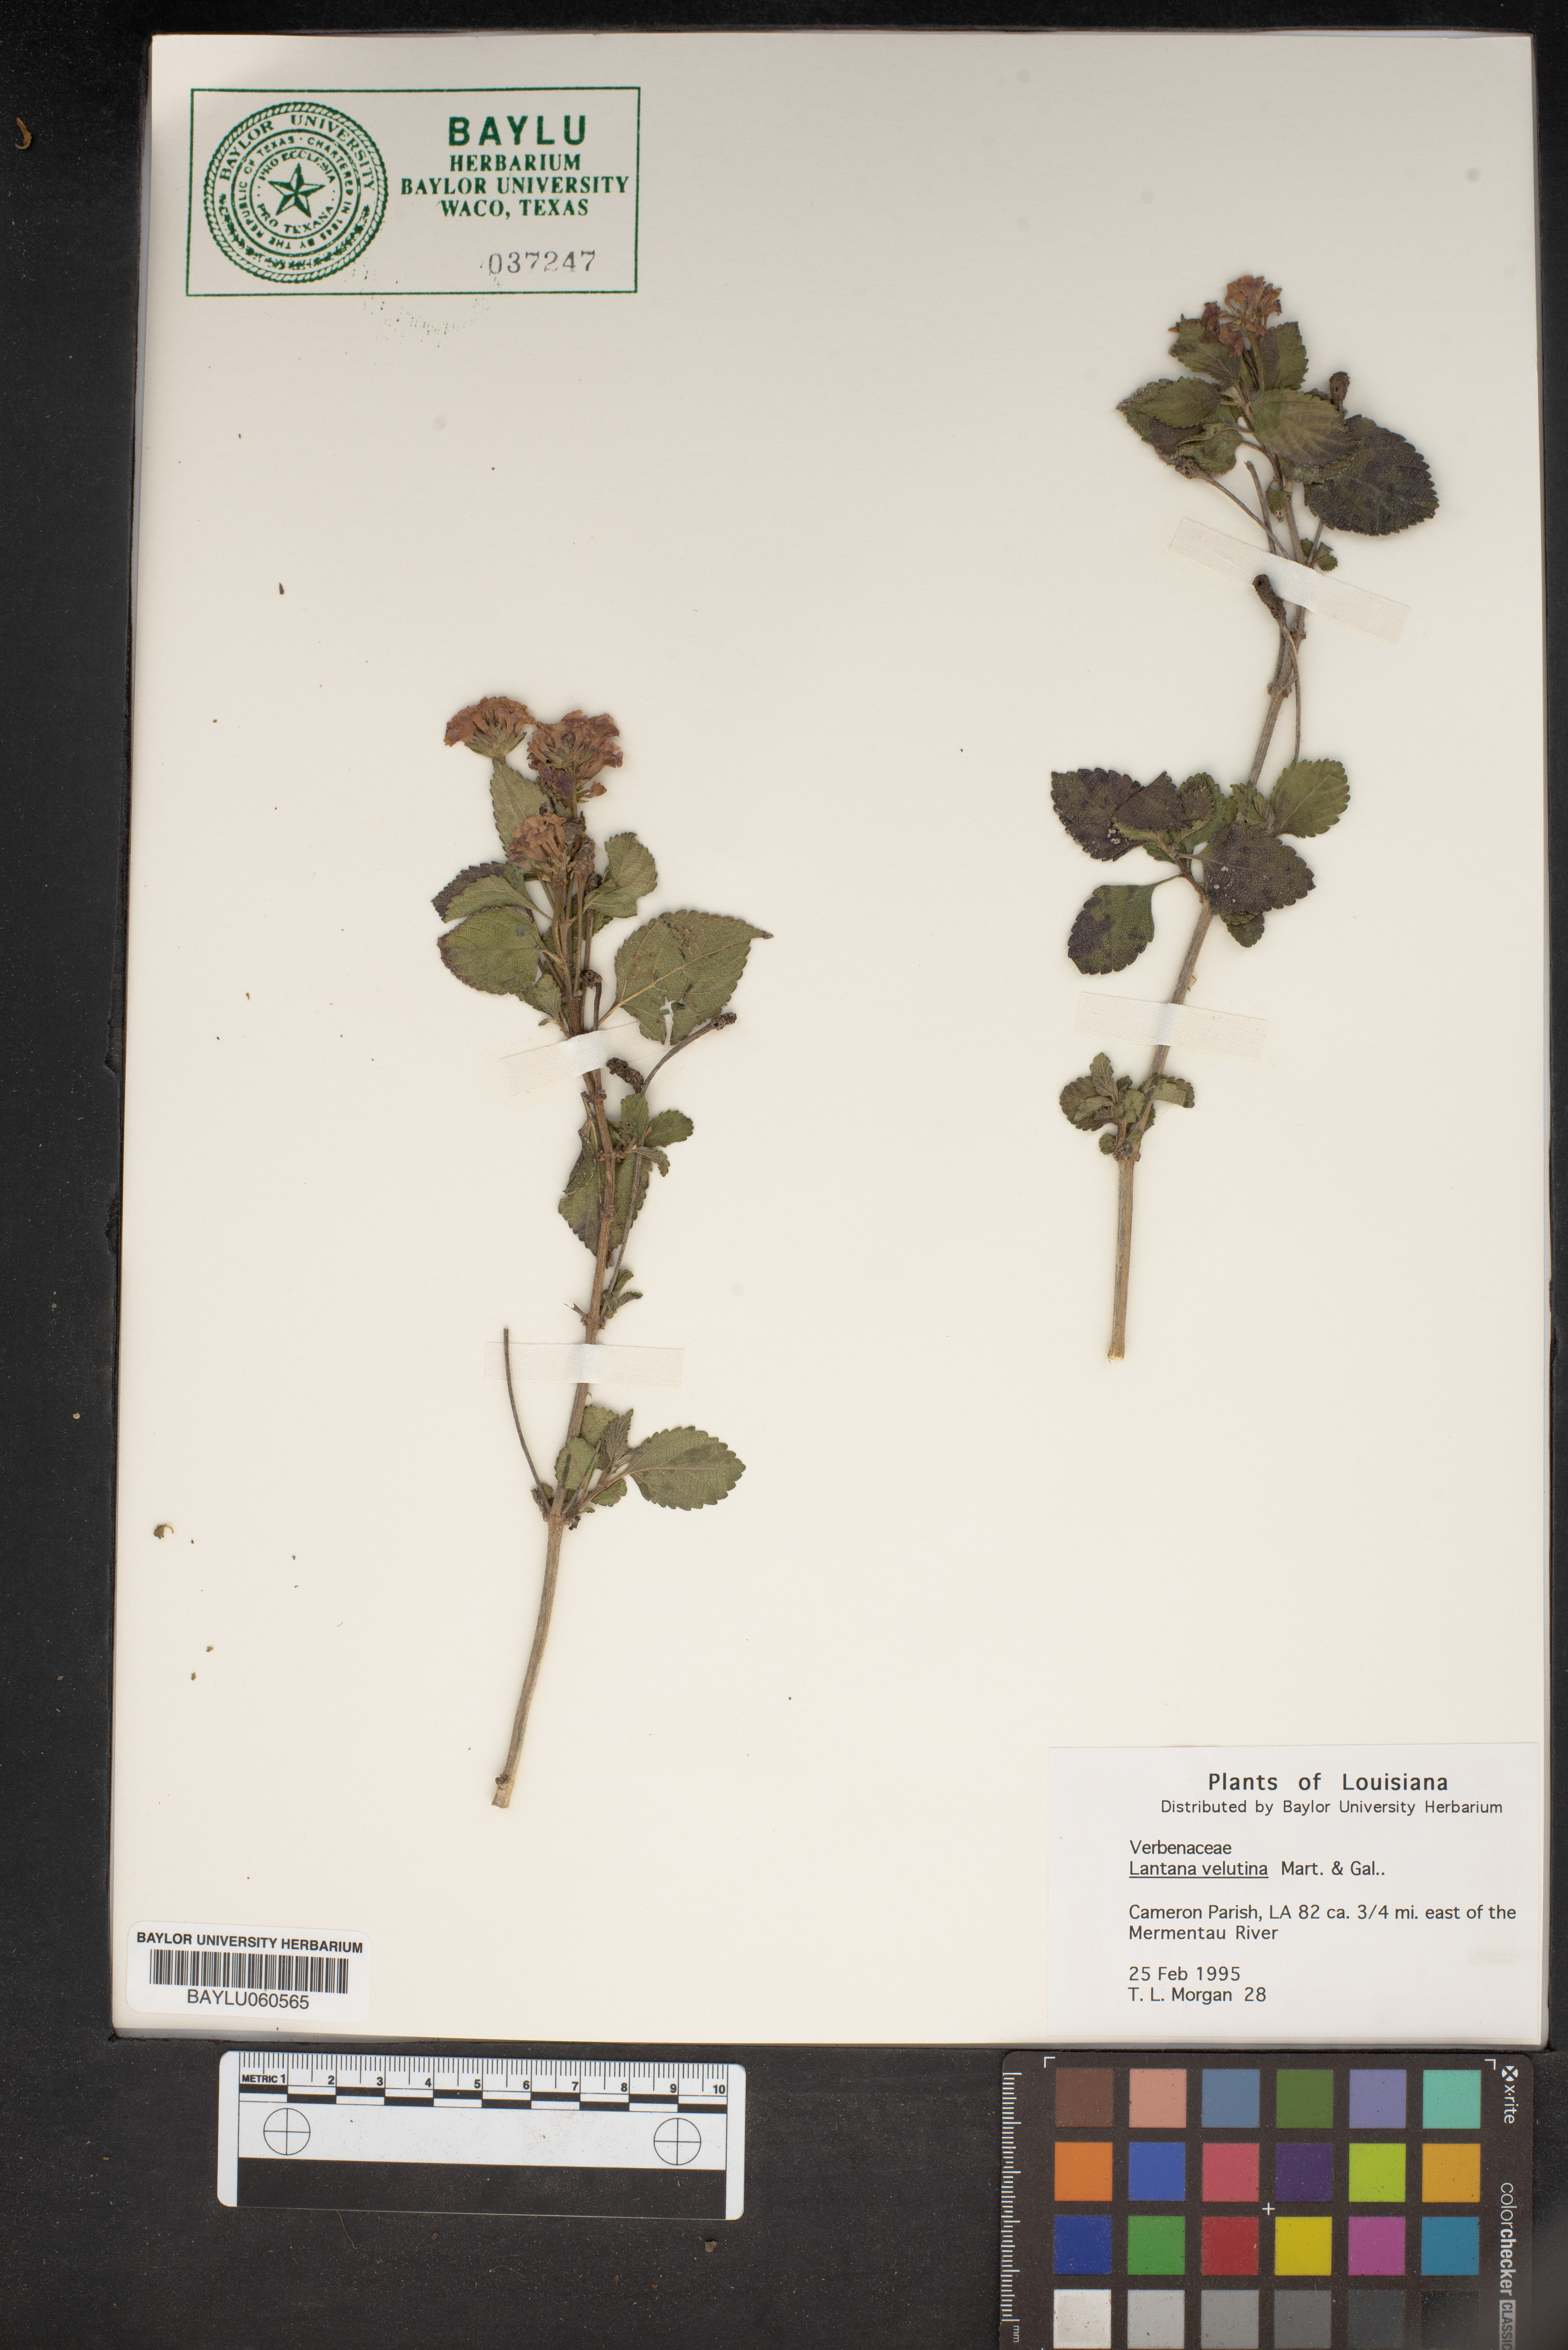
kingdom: Plantae
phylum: Tracheophyta
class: Magnoliopsida
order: Lamiales
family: Verbenaceae
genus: Lantana
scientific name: Lantana velutina
